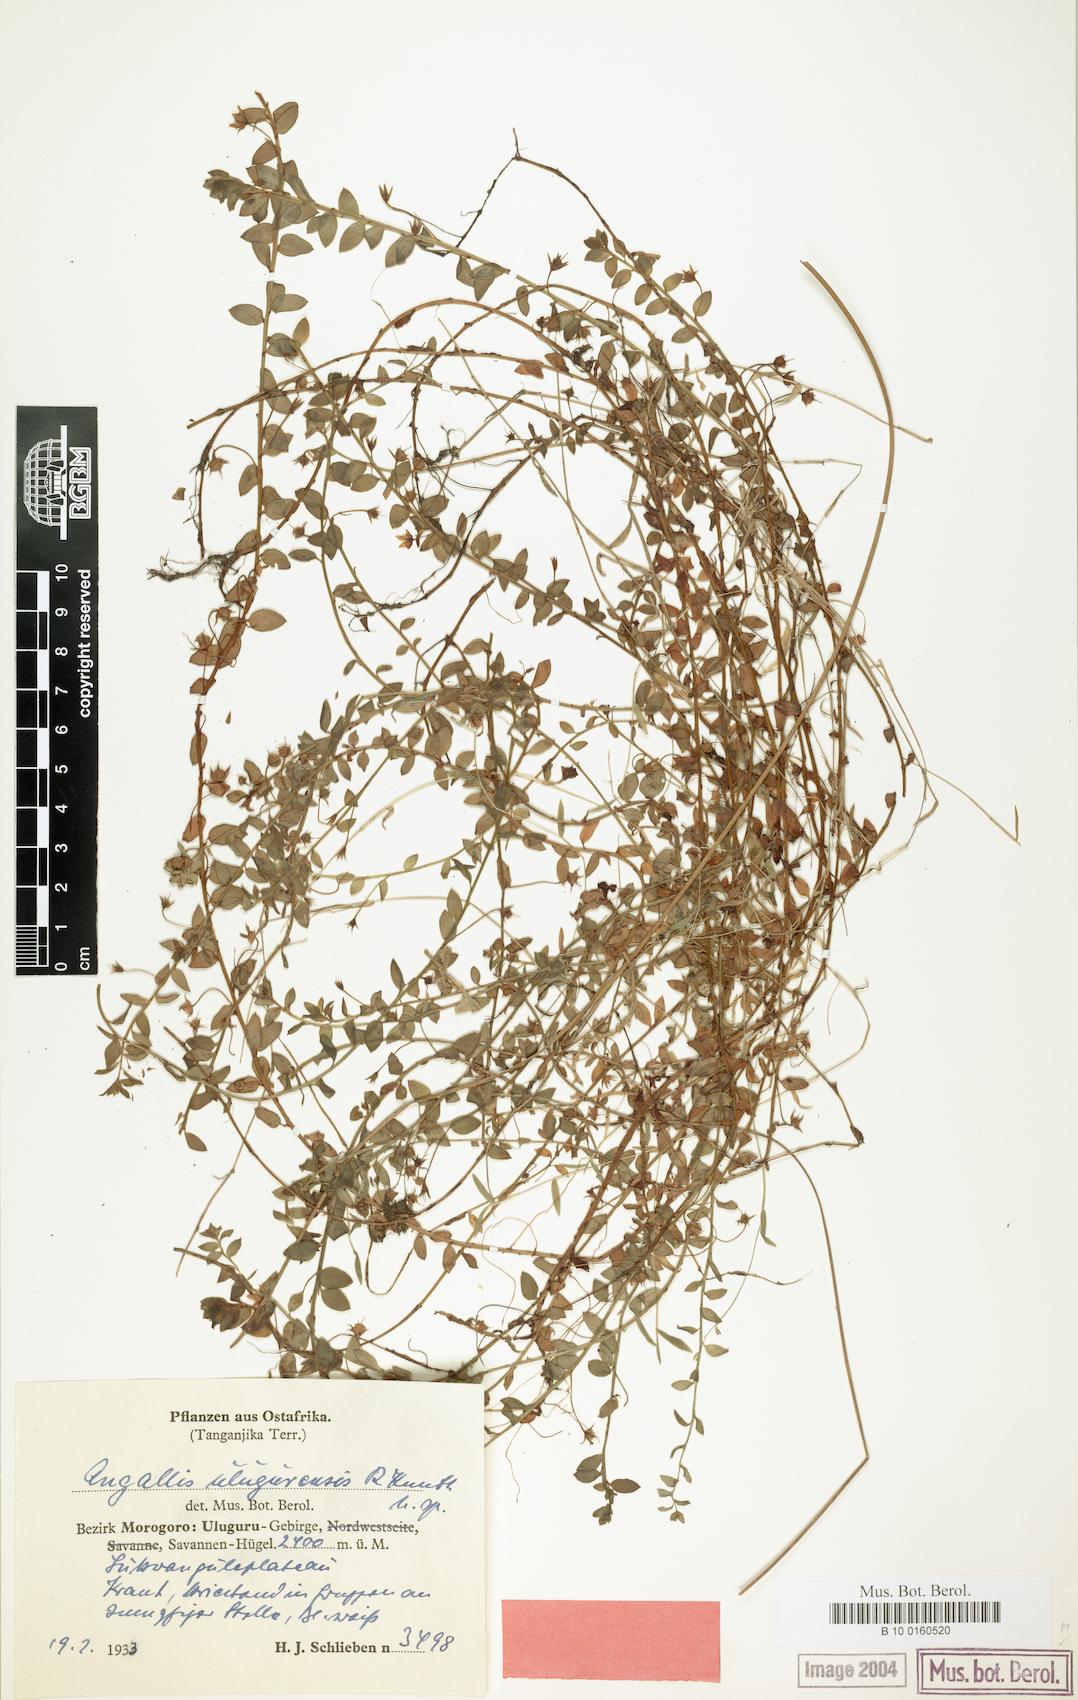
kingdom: Plantae
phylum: Tracheophyta
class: Magnoliopsida
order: Ericales
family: Primulaceae
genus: Lysimachia
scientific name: Lysimachia angustiloba
